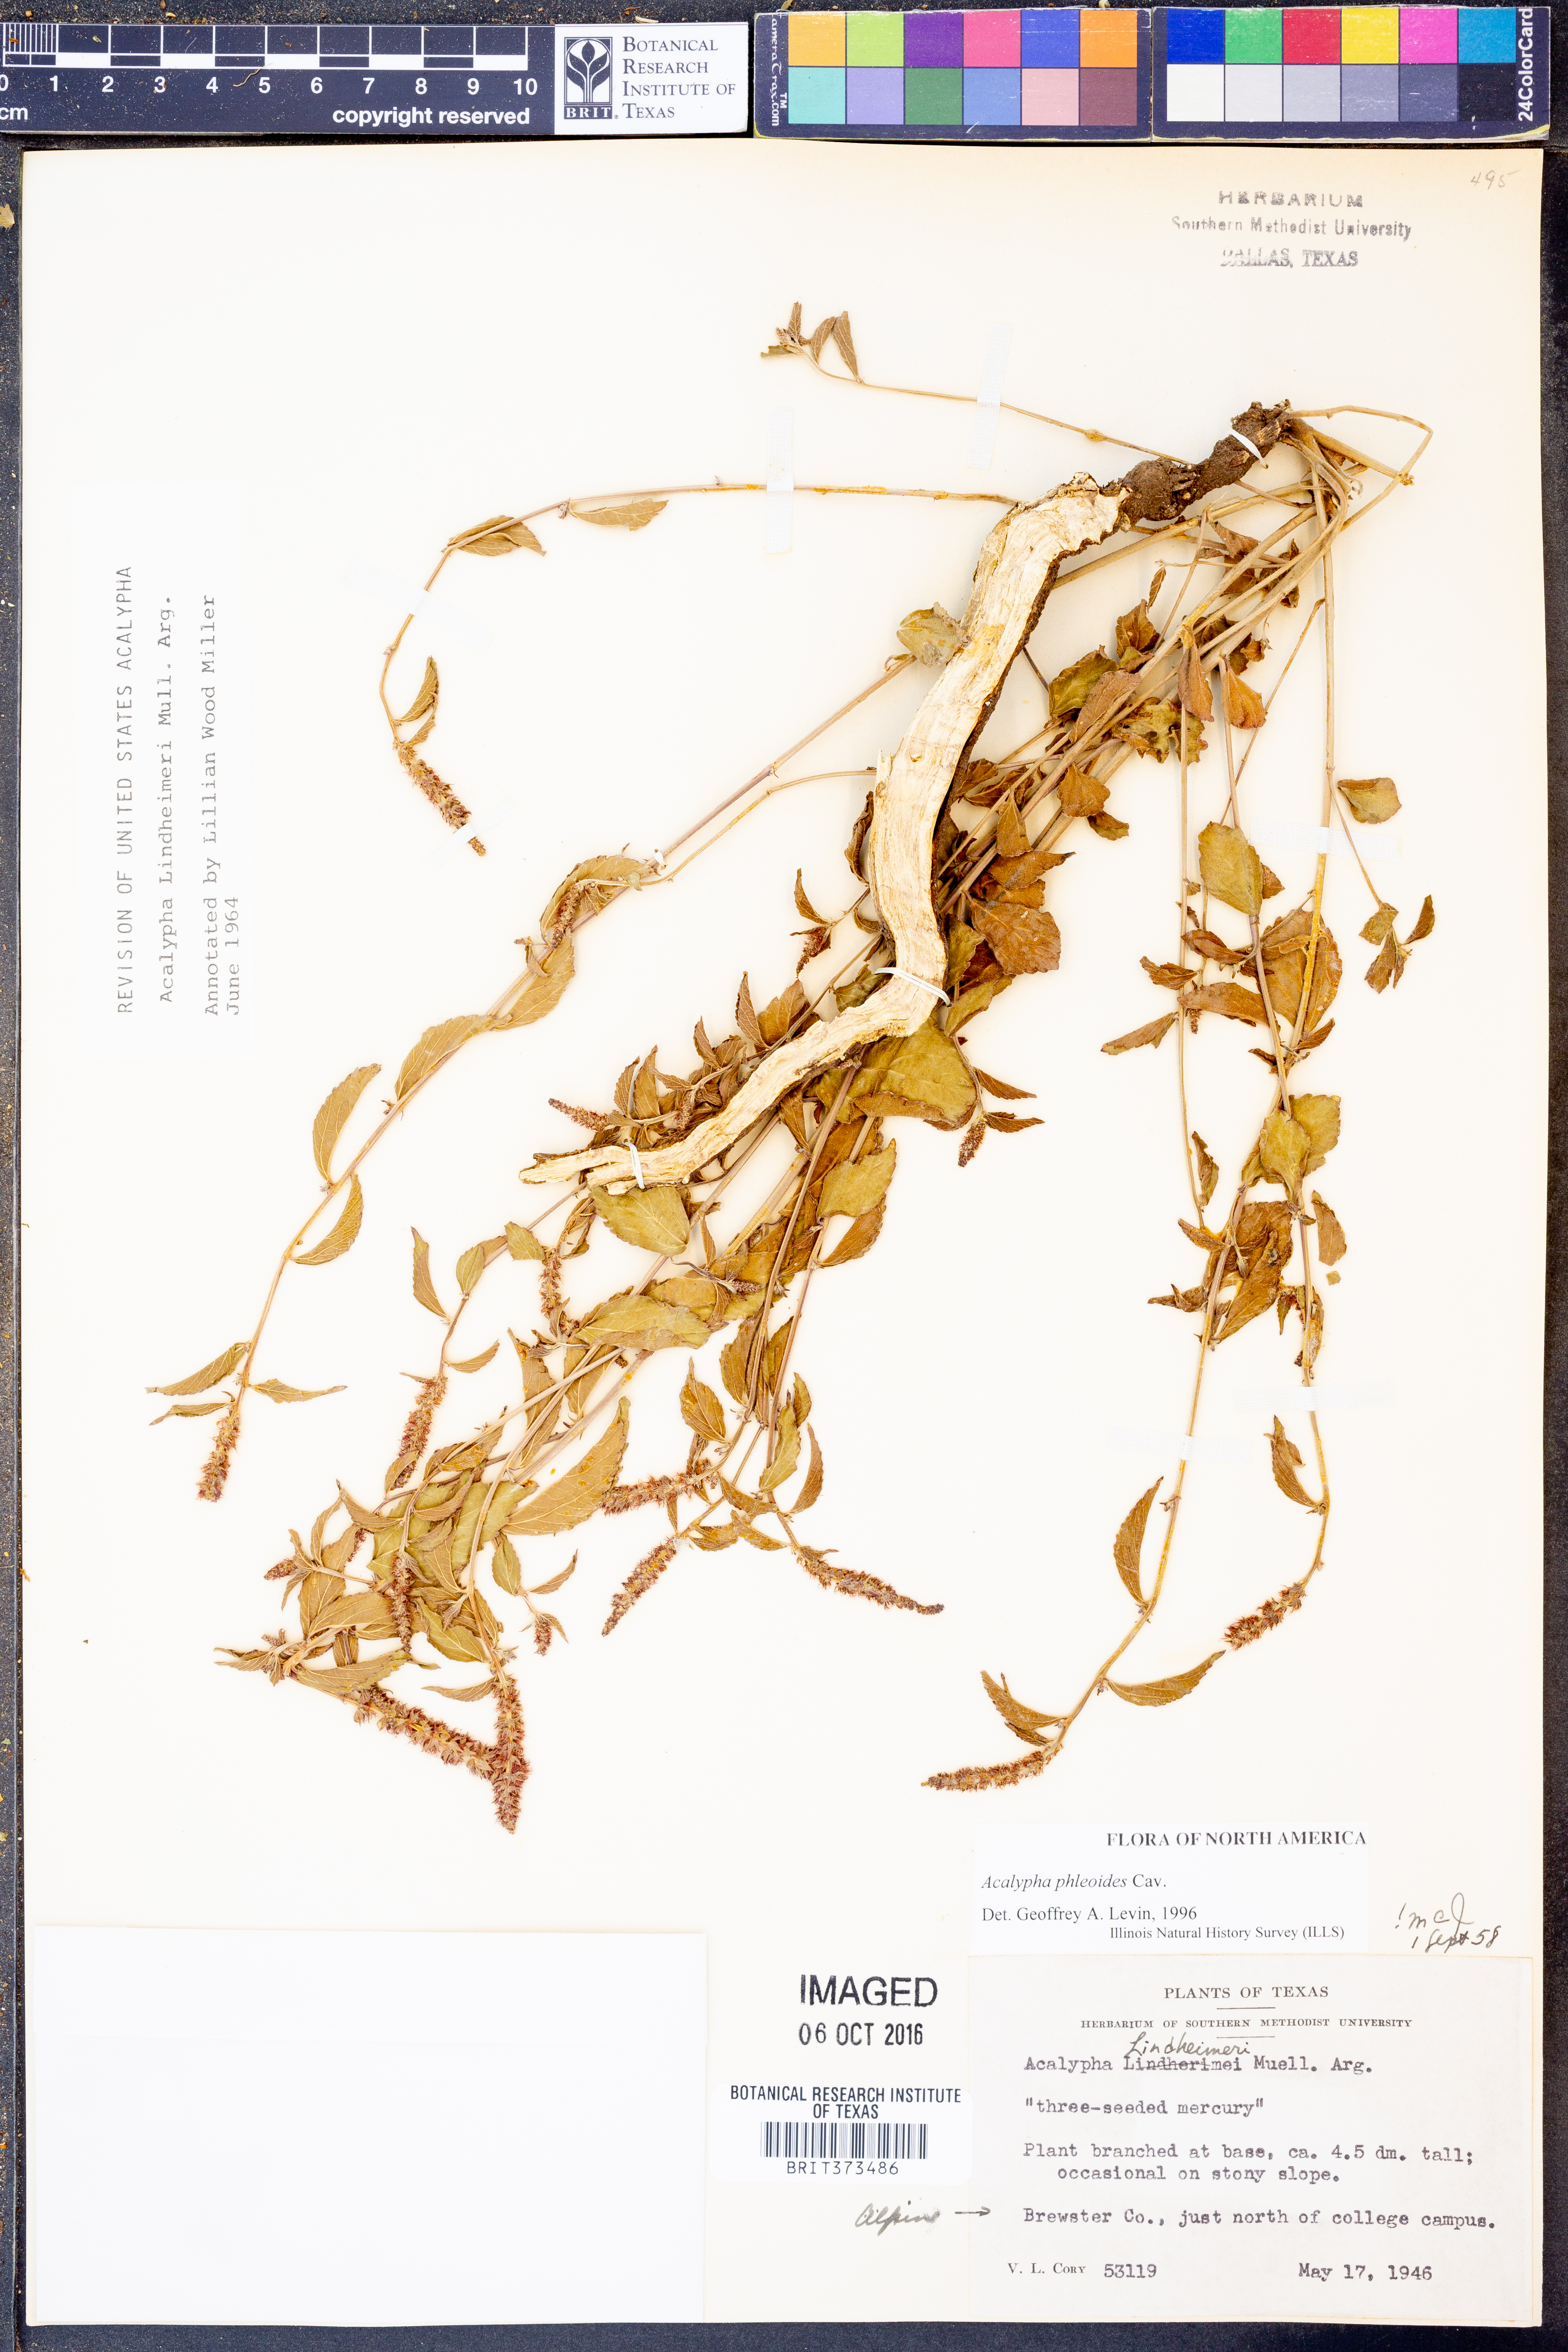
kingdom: Plantae
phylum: Tracheophyta
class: Magnoliopsida
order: Malpighiales
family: Euphorbiaceae
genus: Acalypha
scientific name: Acalypha phleoides
